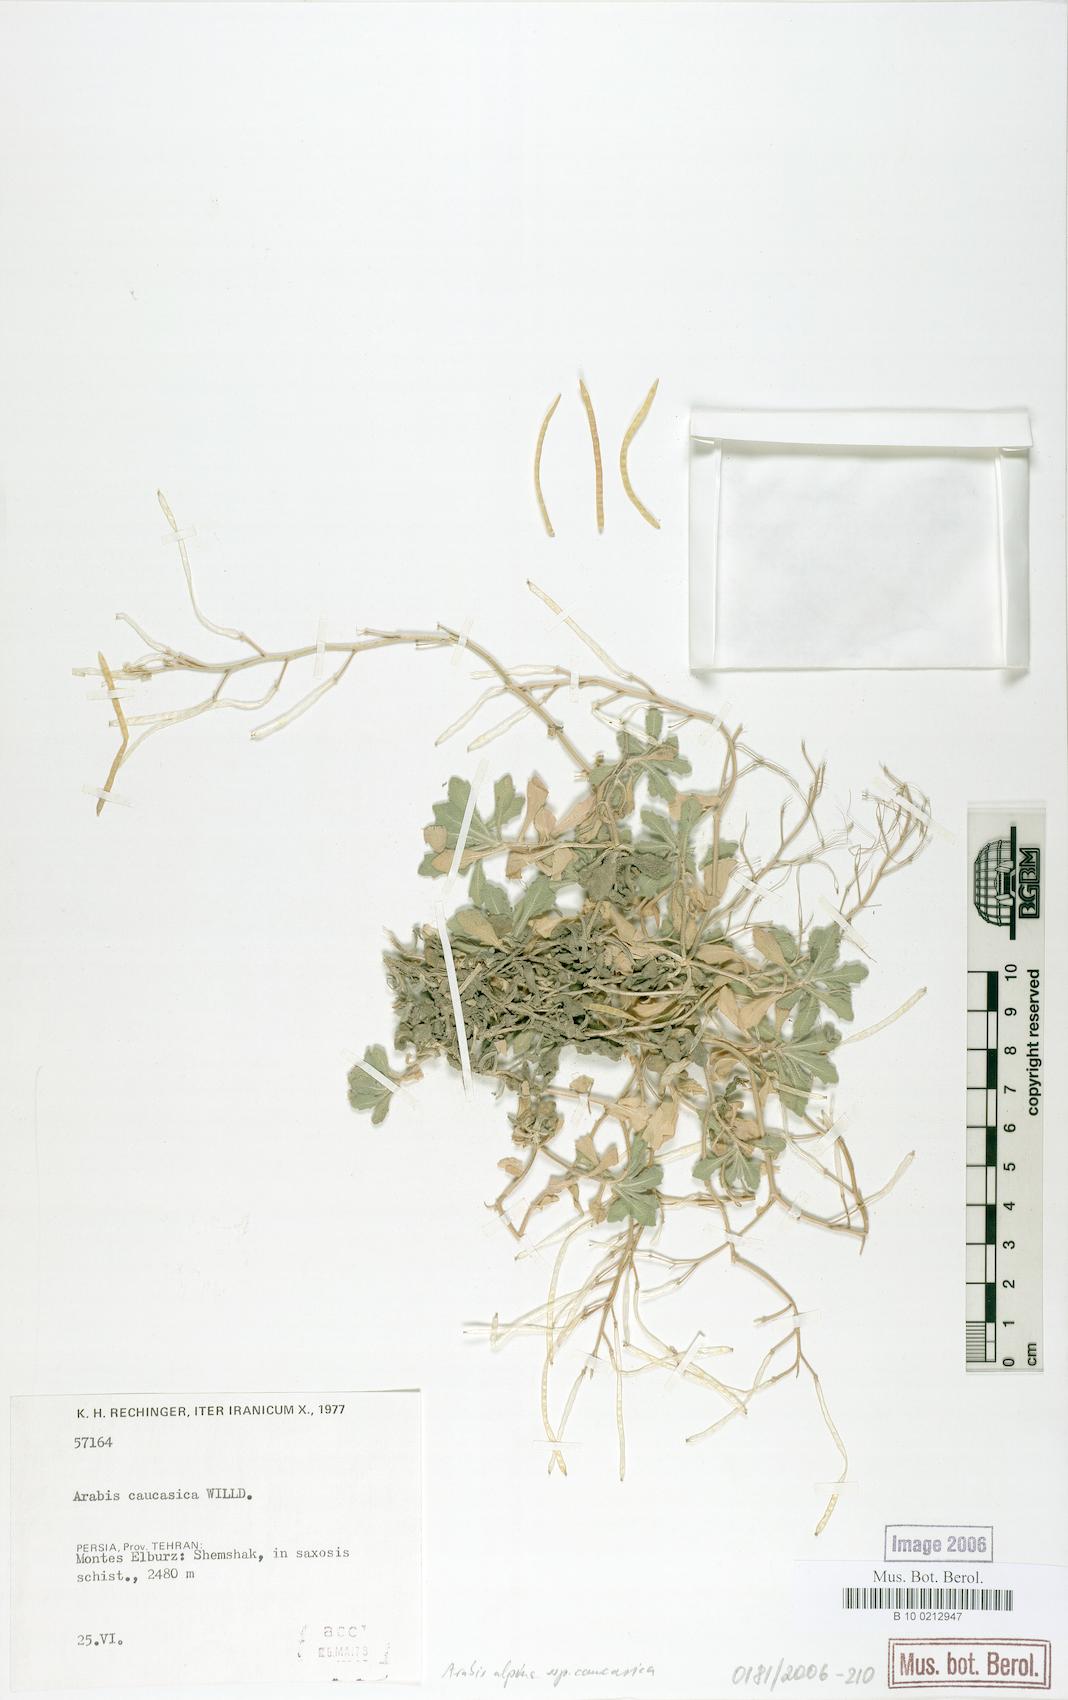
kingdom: Plantae
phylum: Tracheophyta
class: Magnoliopsida
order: Brassicales
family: Brassicaceae
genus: Arabis
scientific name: Arabis caucasica
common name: Gray rockcress
